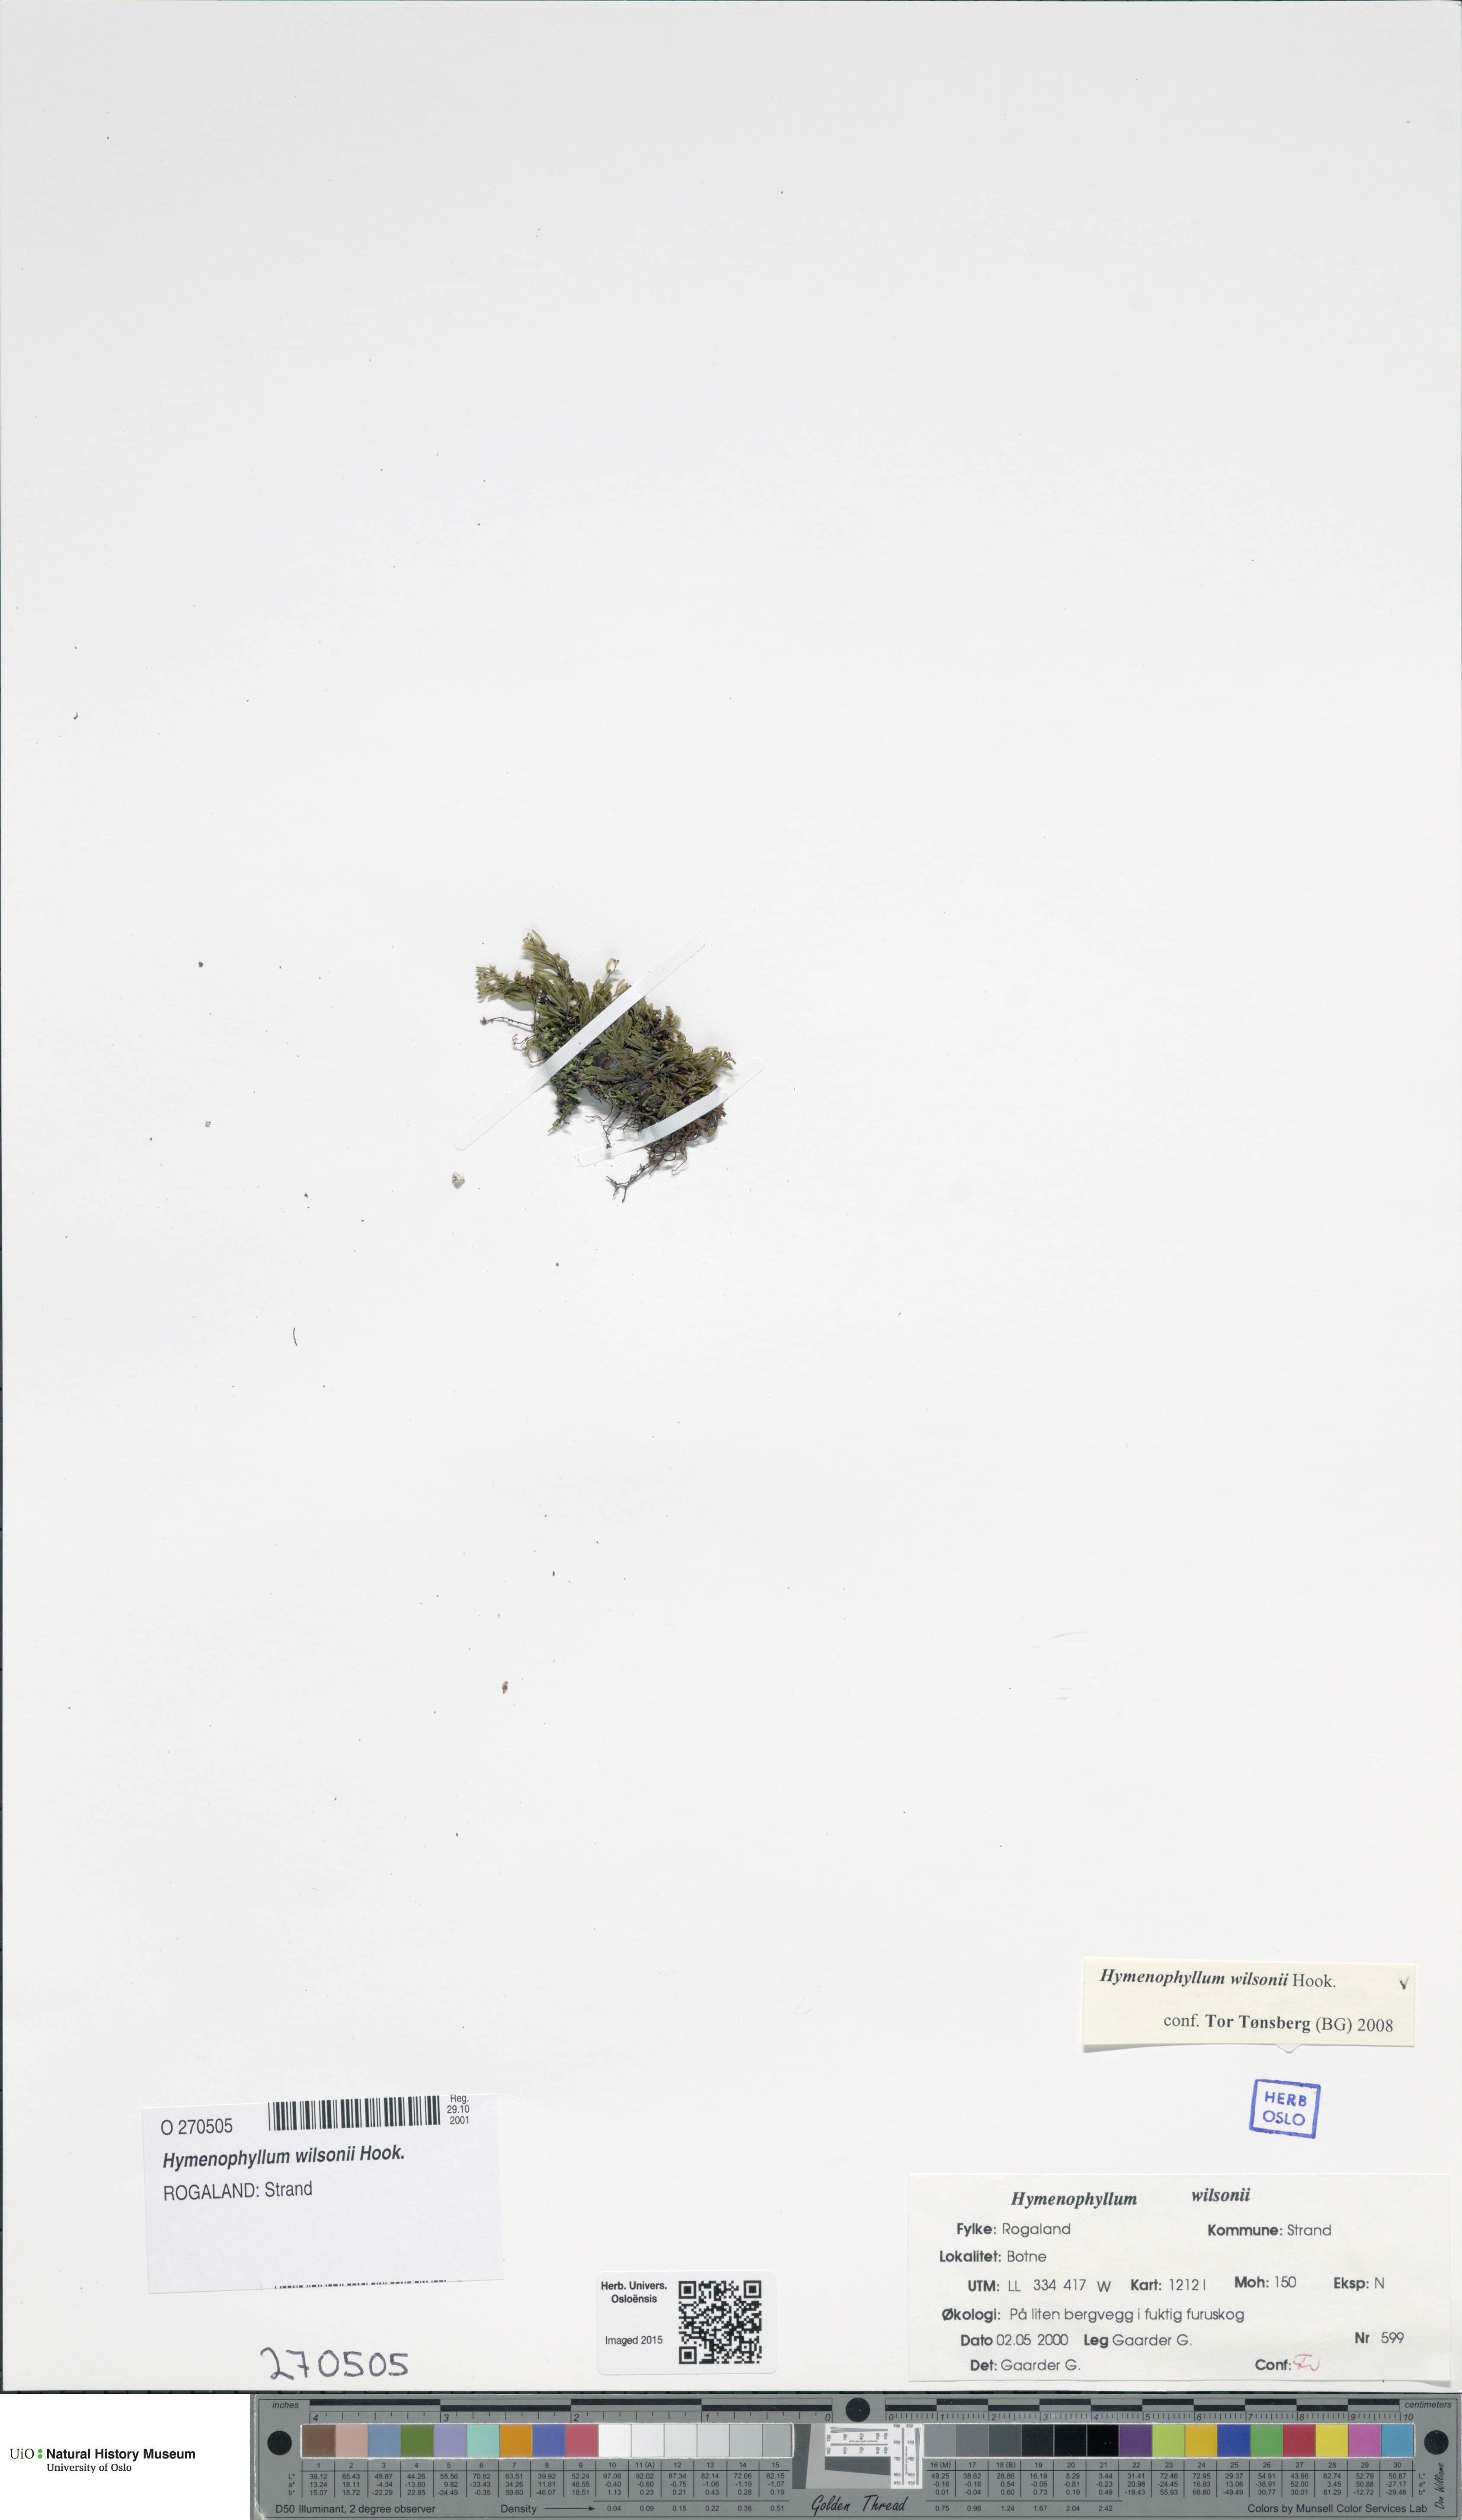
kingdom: Plantae
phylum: Tracheophyta
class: Polypodiopsida
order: Hymenophyllales
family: Hymenophyllaceae
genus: Hymenophyllum
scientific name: Hymenophyllum peltatum
